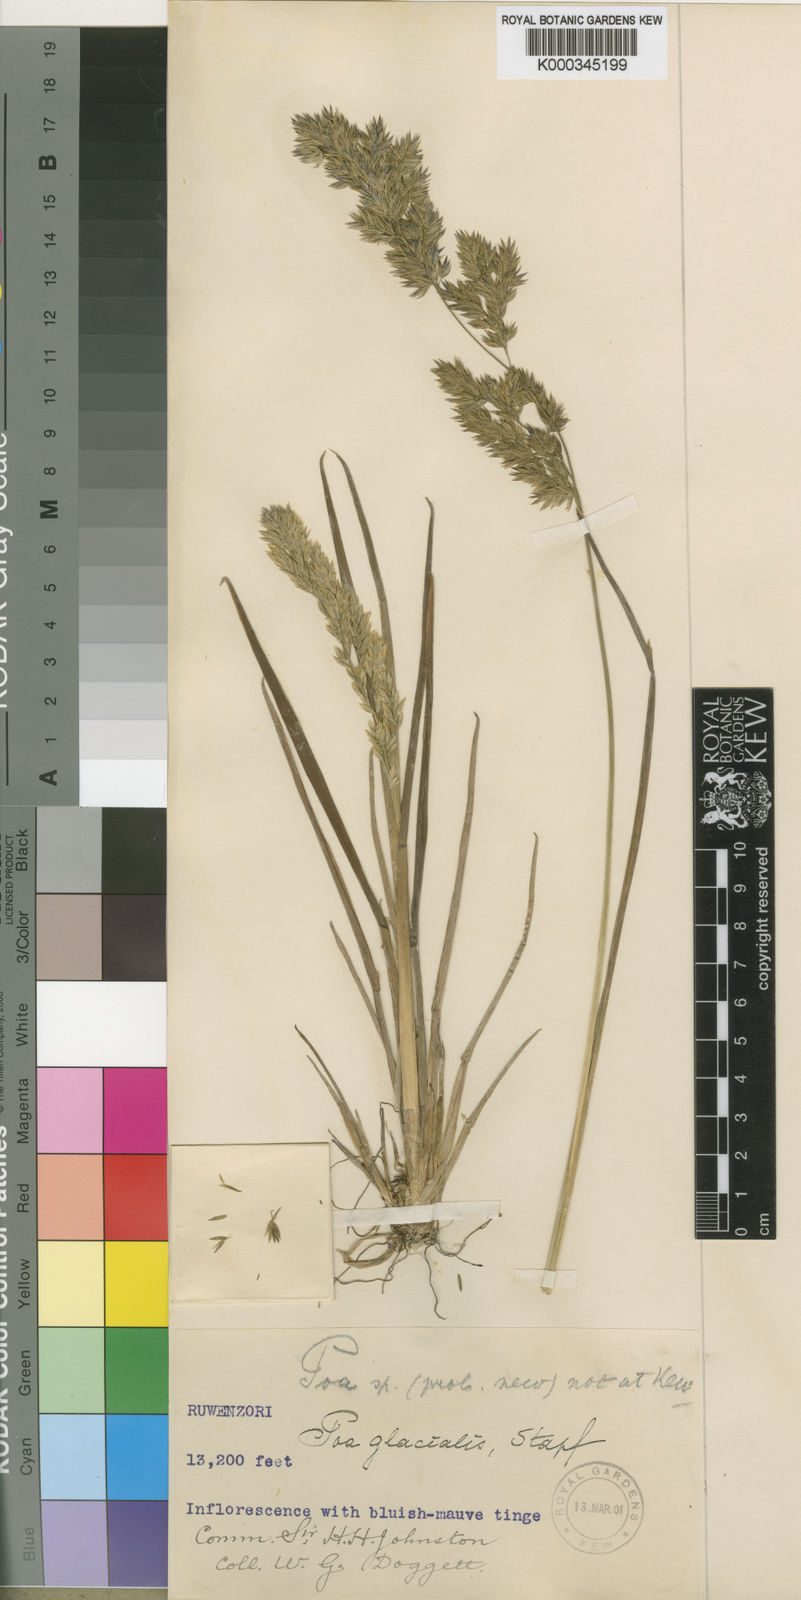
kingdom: Plantae
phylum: Tracheophyta
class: Liliopsida
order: Poales
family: Poaceae
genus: Poa
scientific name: Poa ruwenzoriensis
